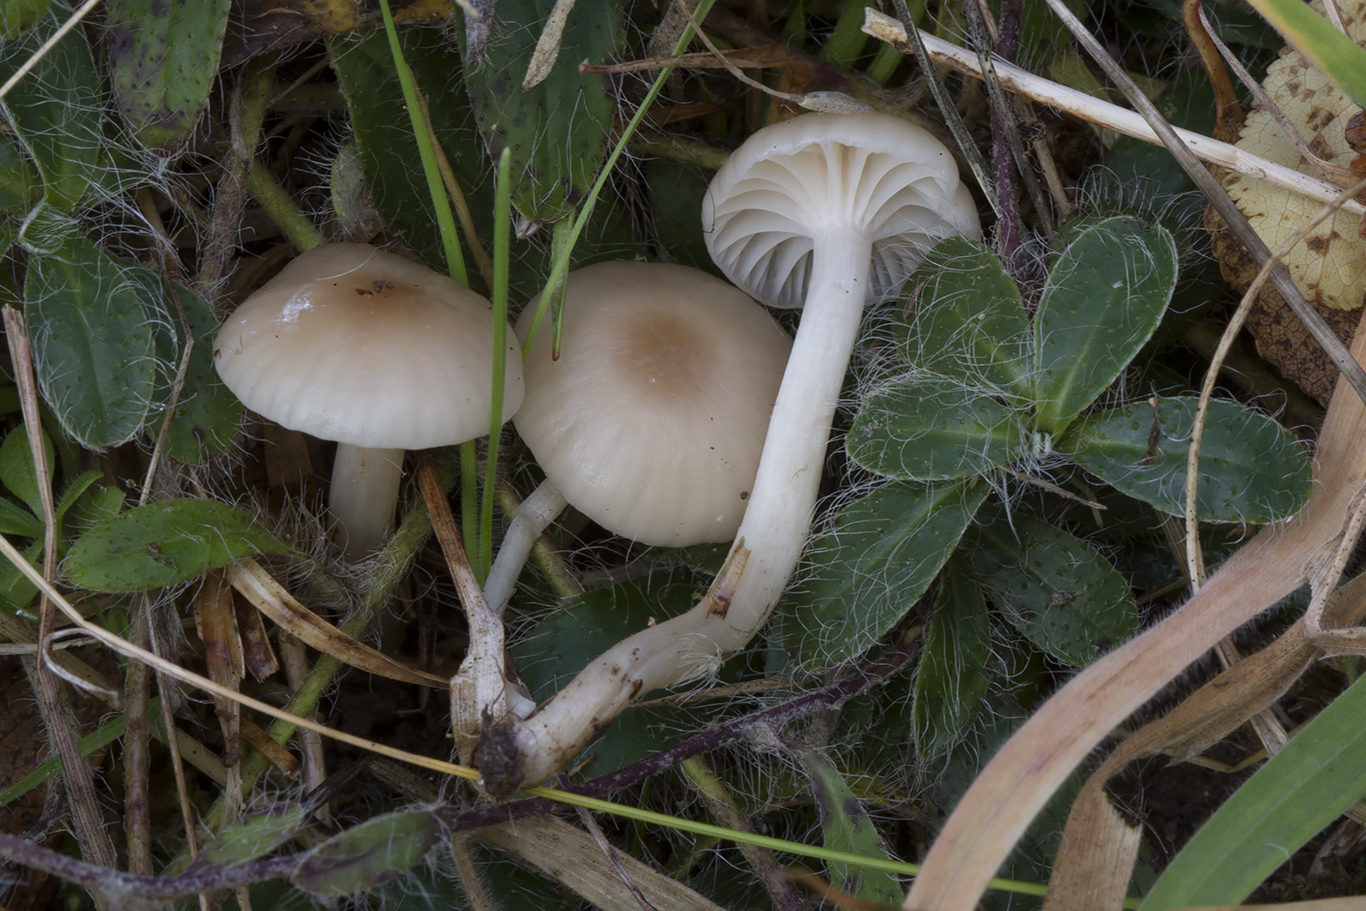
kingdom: Fungi
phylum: Basidiomycota
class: Agaricomycetes
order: Agaricales
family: Hygrophoraceae
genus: Cuphophyllus
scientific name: Cuphophyllus virgineus
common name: brunøjet vokshat
